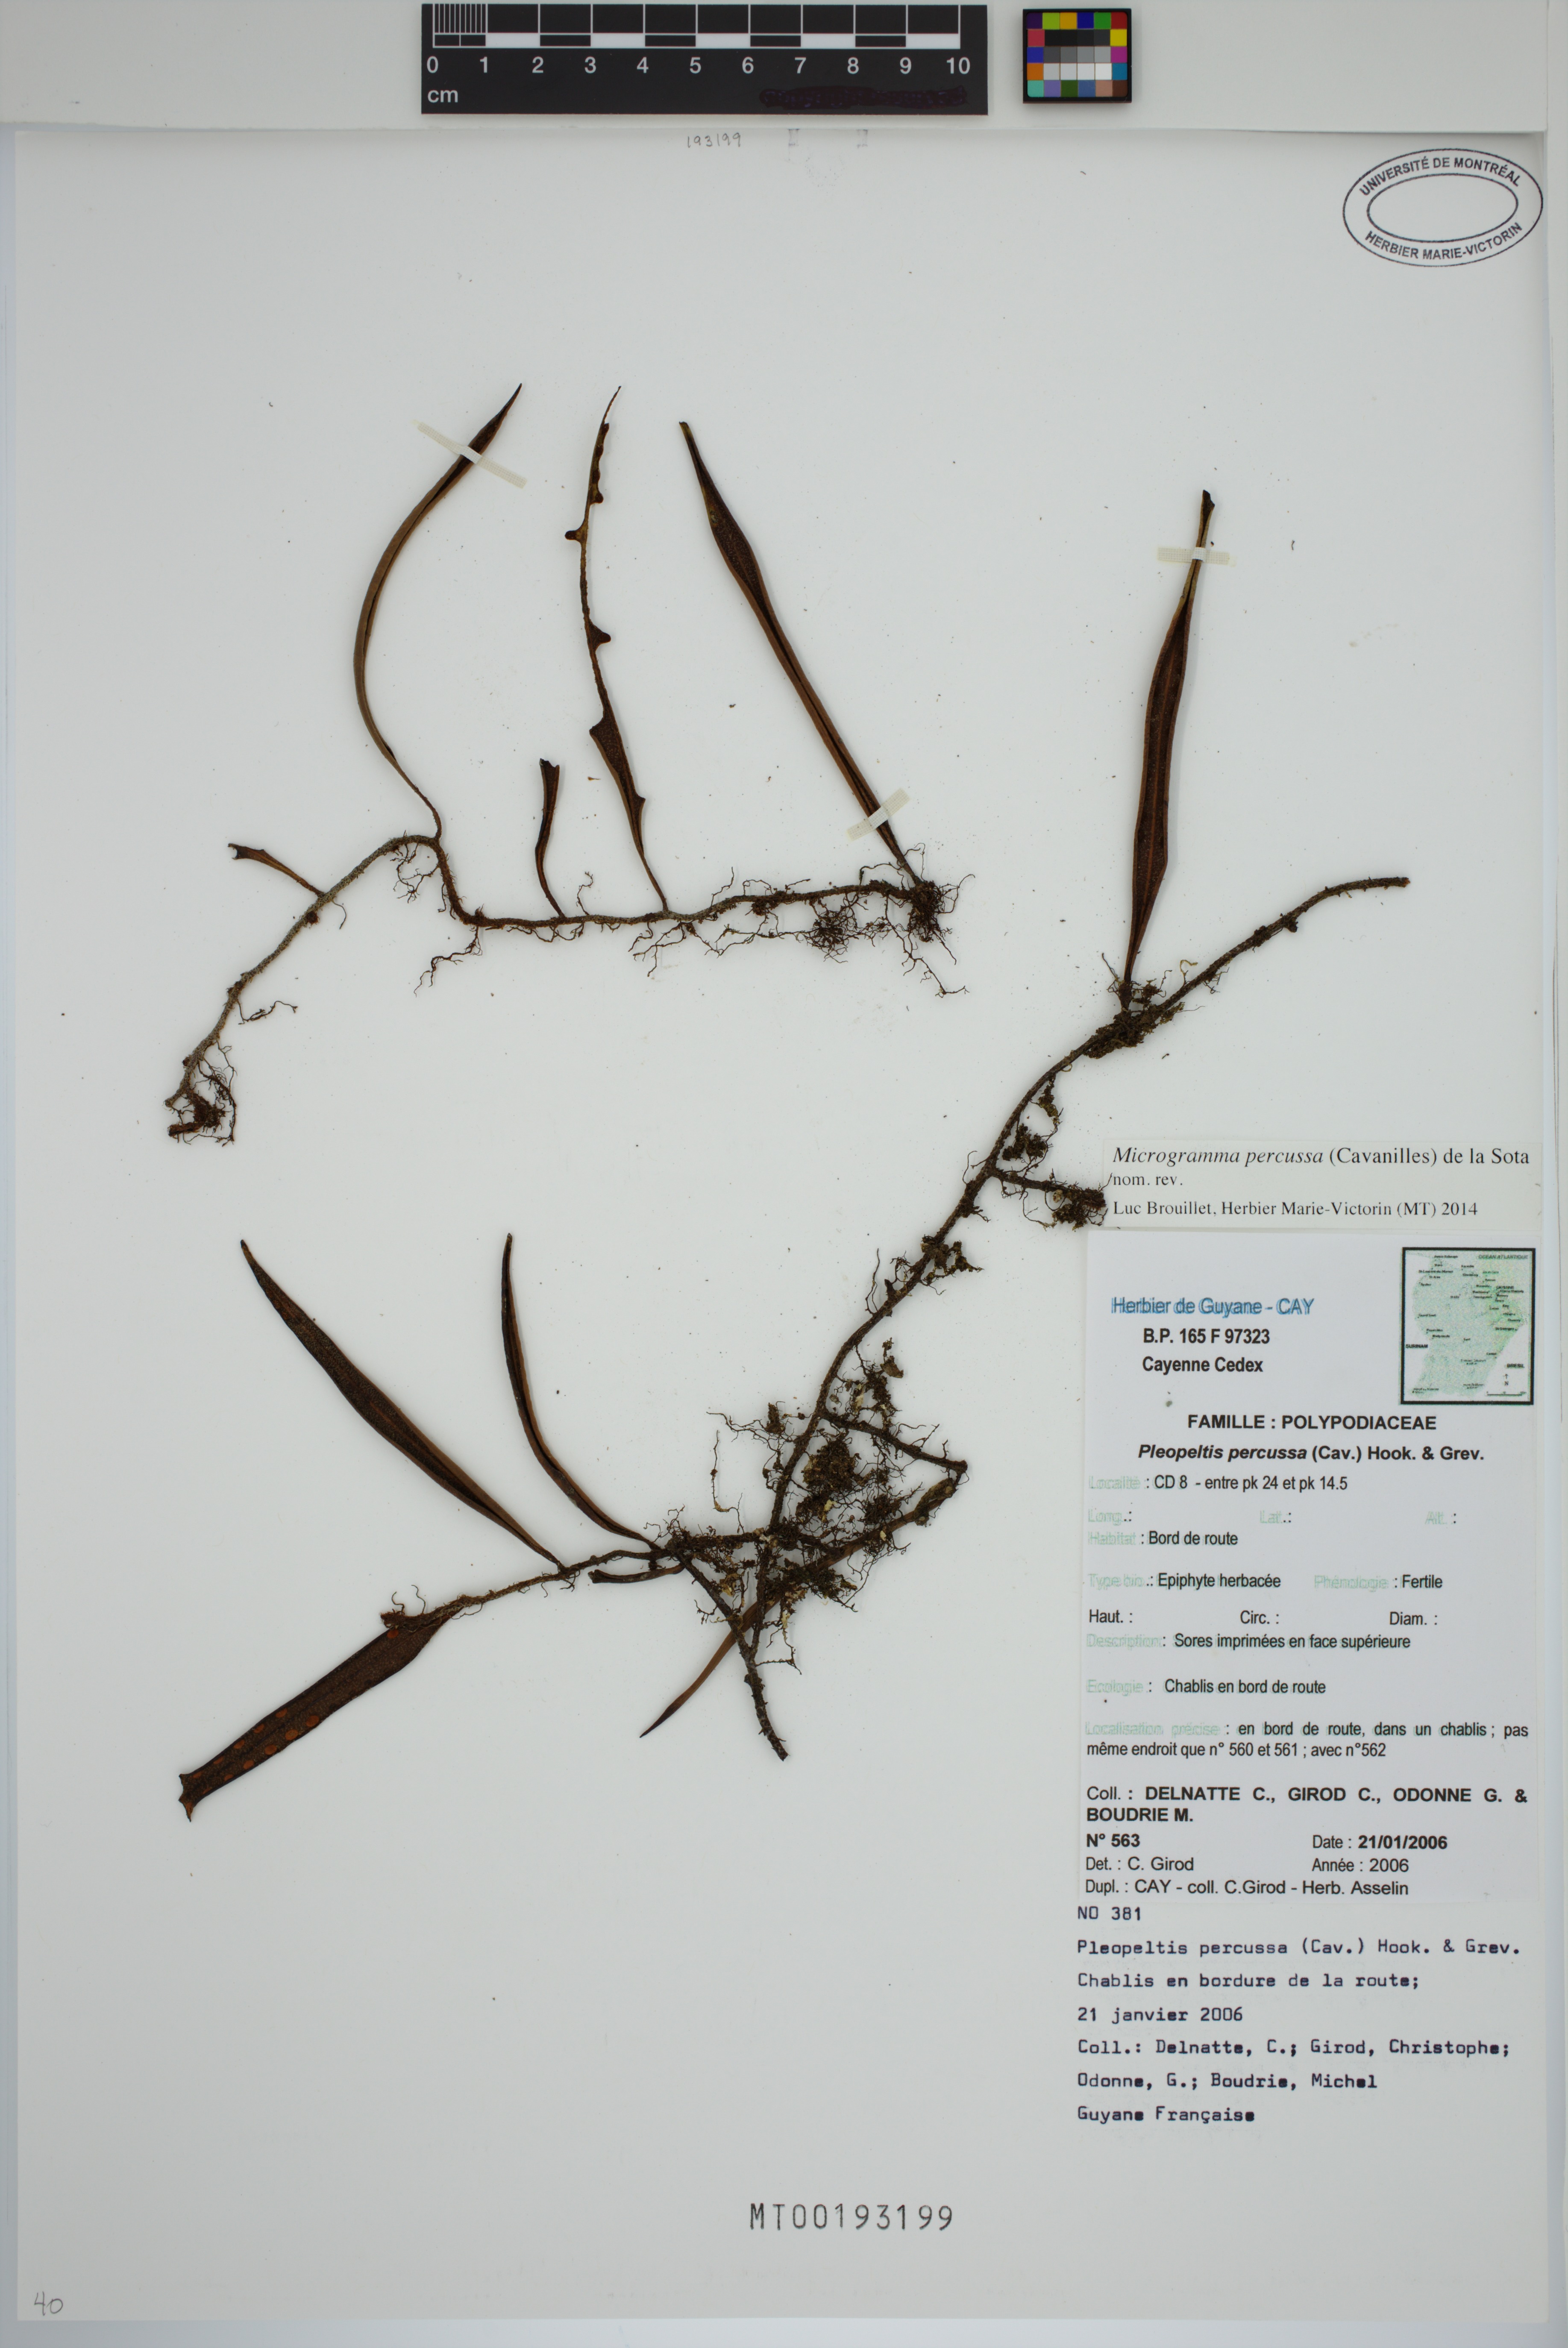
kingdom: Plantae
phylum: Tracheophyta
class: Polypodiopsida
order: Polypodiales
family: Polypodiaceae
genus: Microgramma
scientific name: Microgramma percussa
